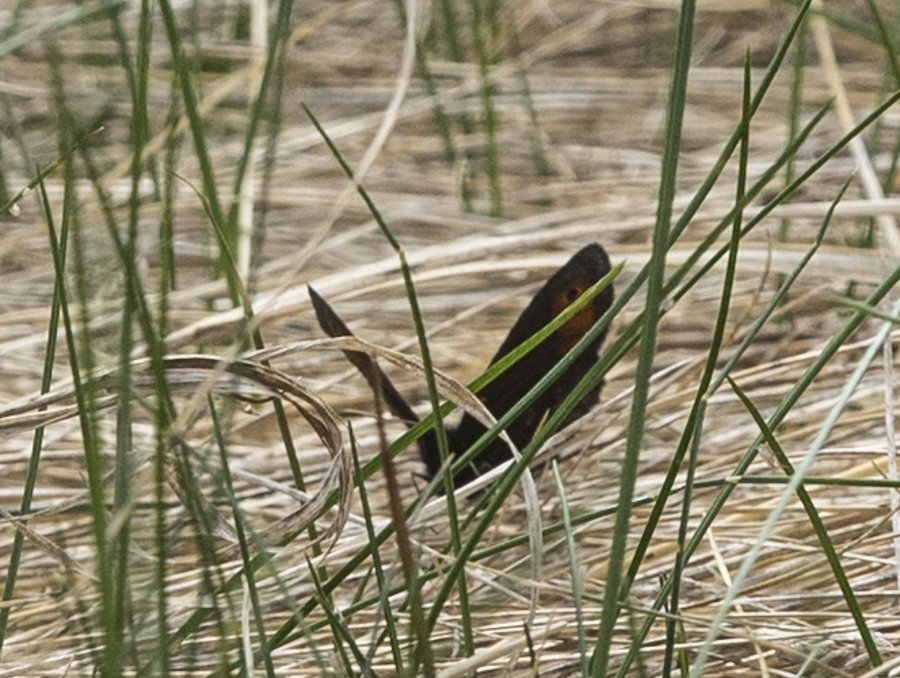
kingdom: Animalia
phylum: Arthropoda
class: Insecta
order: Lepidoptera
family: Nymphalidae
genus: Erebia
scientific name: Erebia epipsodea
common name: Common Alpine
